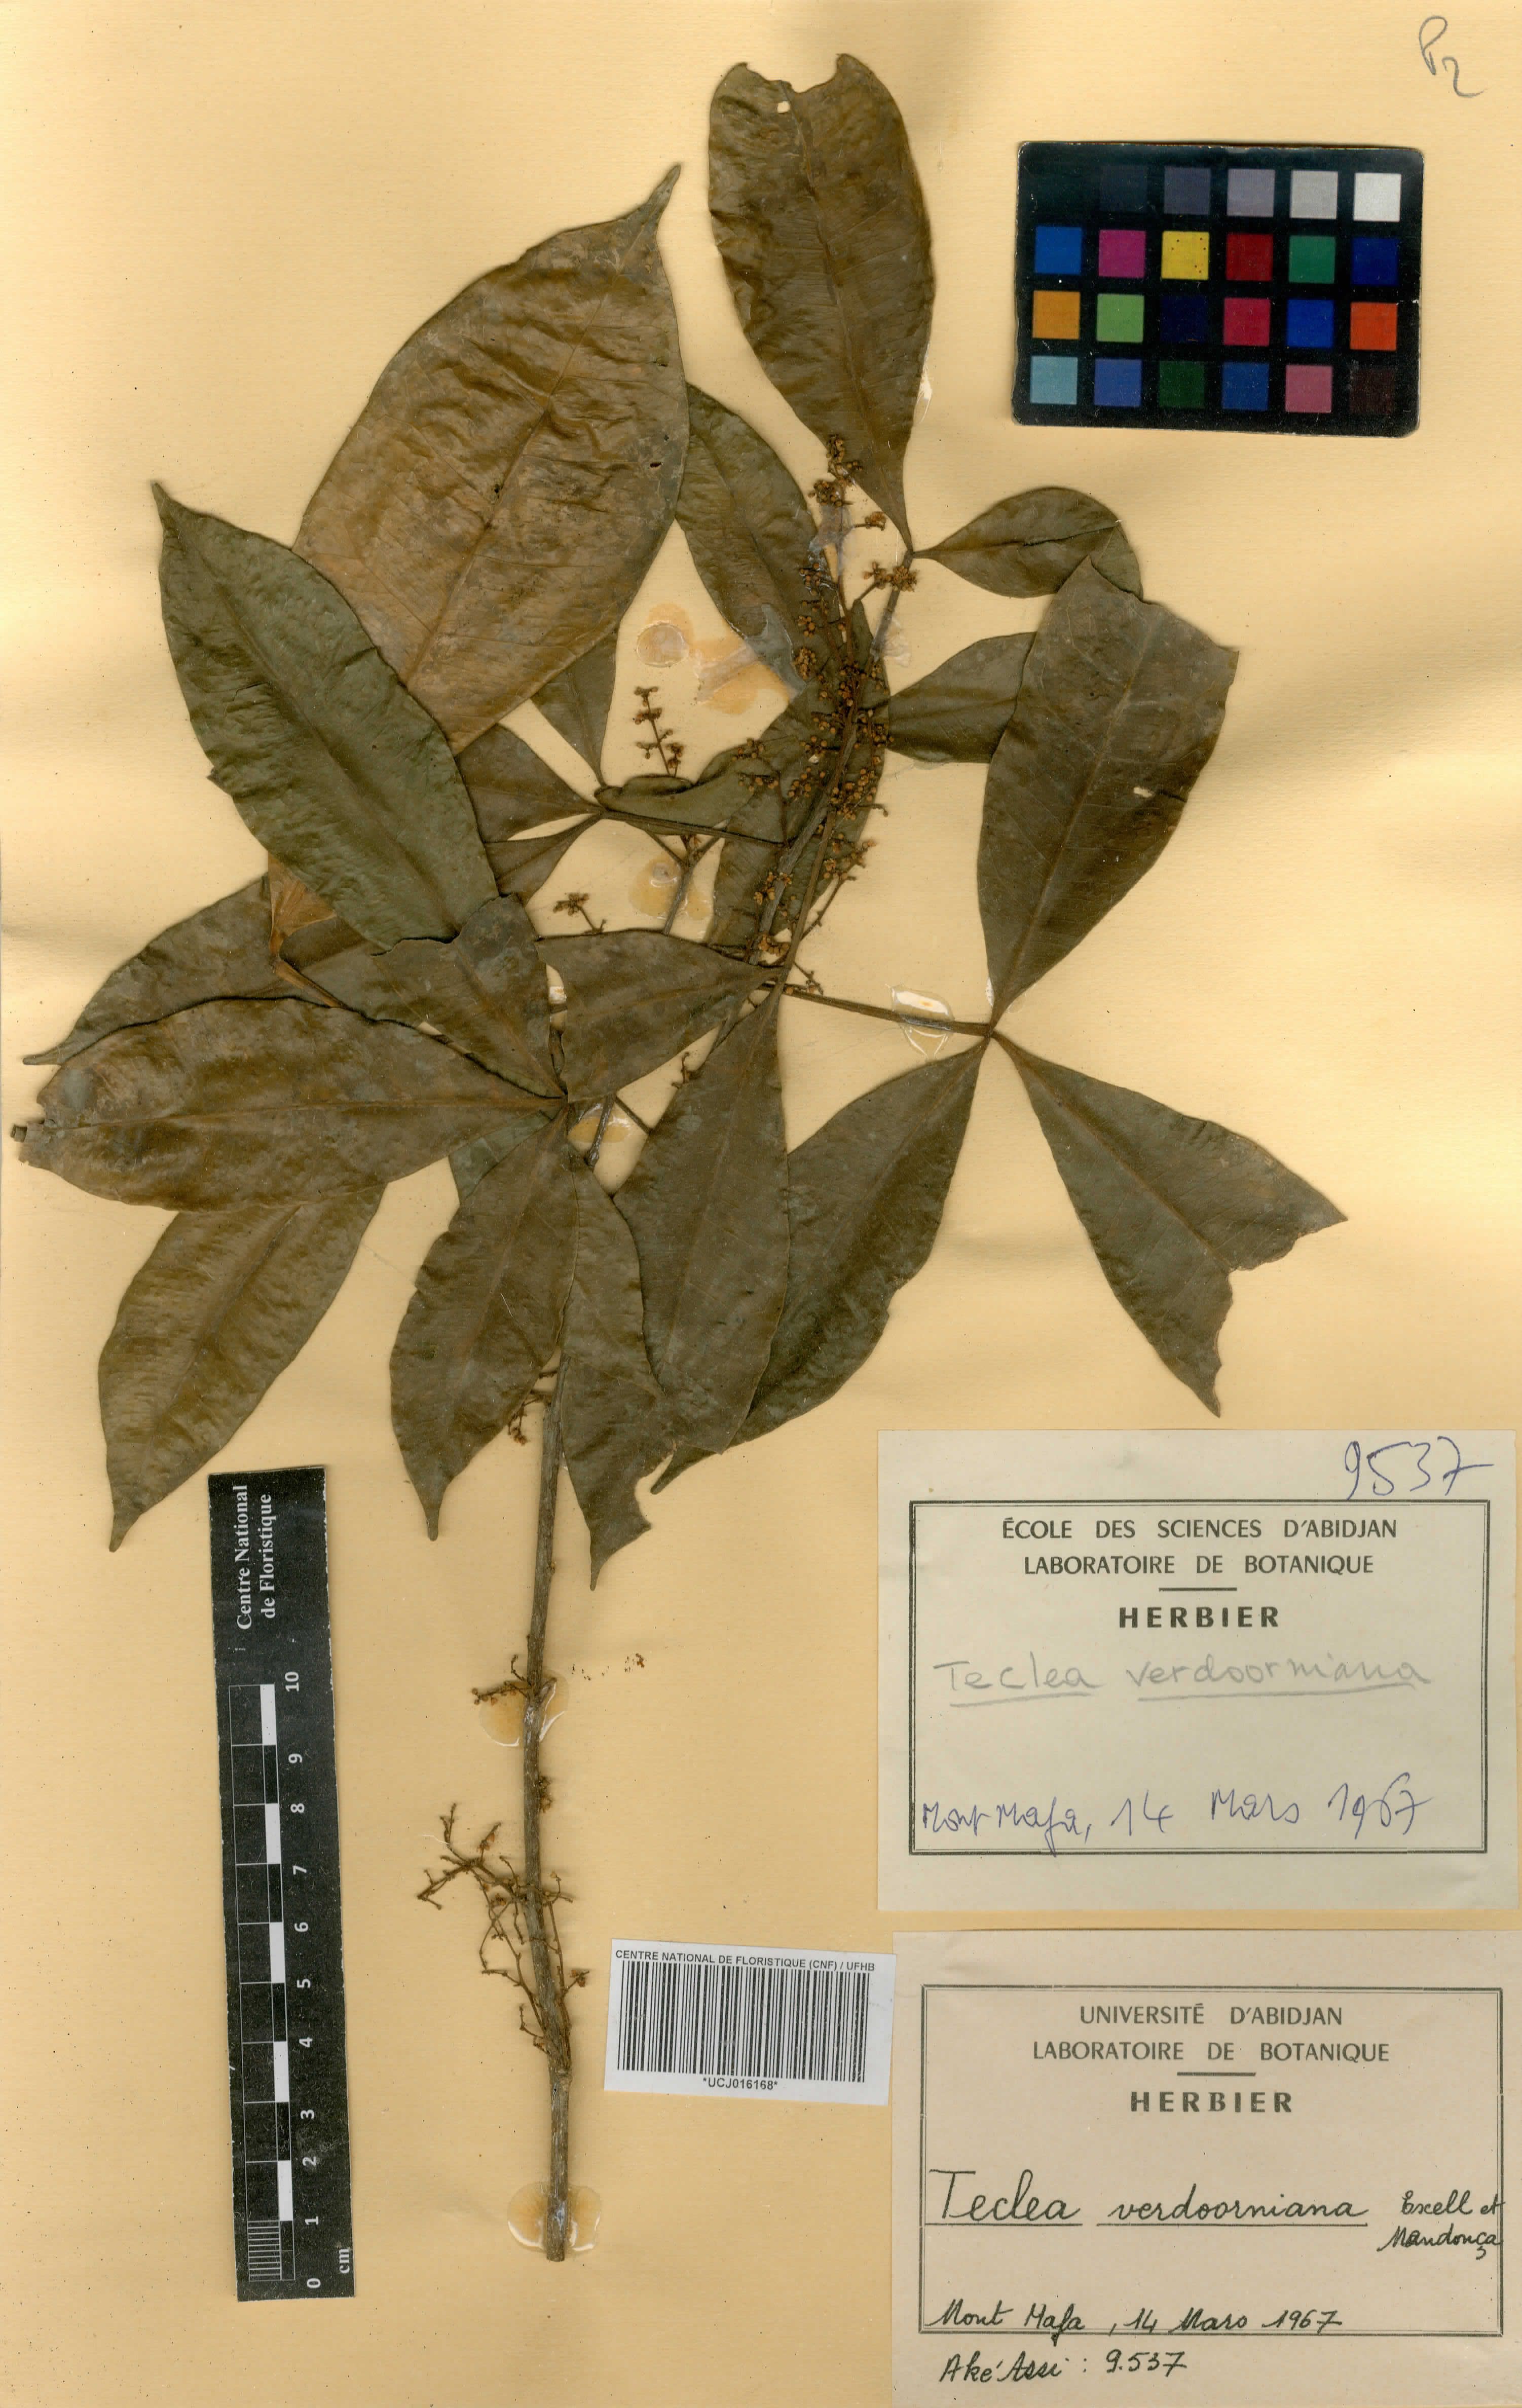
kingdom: Plantae
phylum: Tracheophyta
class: Magnoliopsida
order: Sapindales
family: Rutaceae
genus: Vepris
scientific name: Vepris verdoorniana
